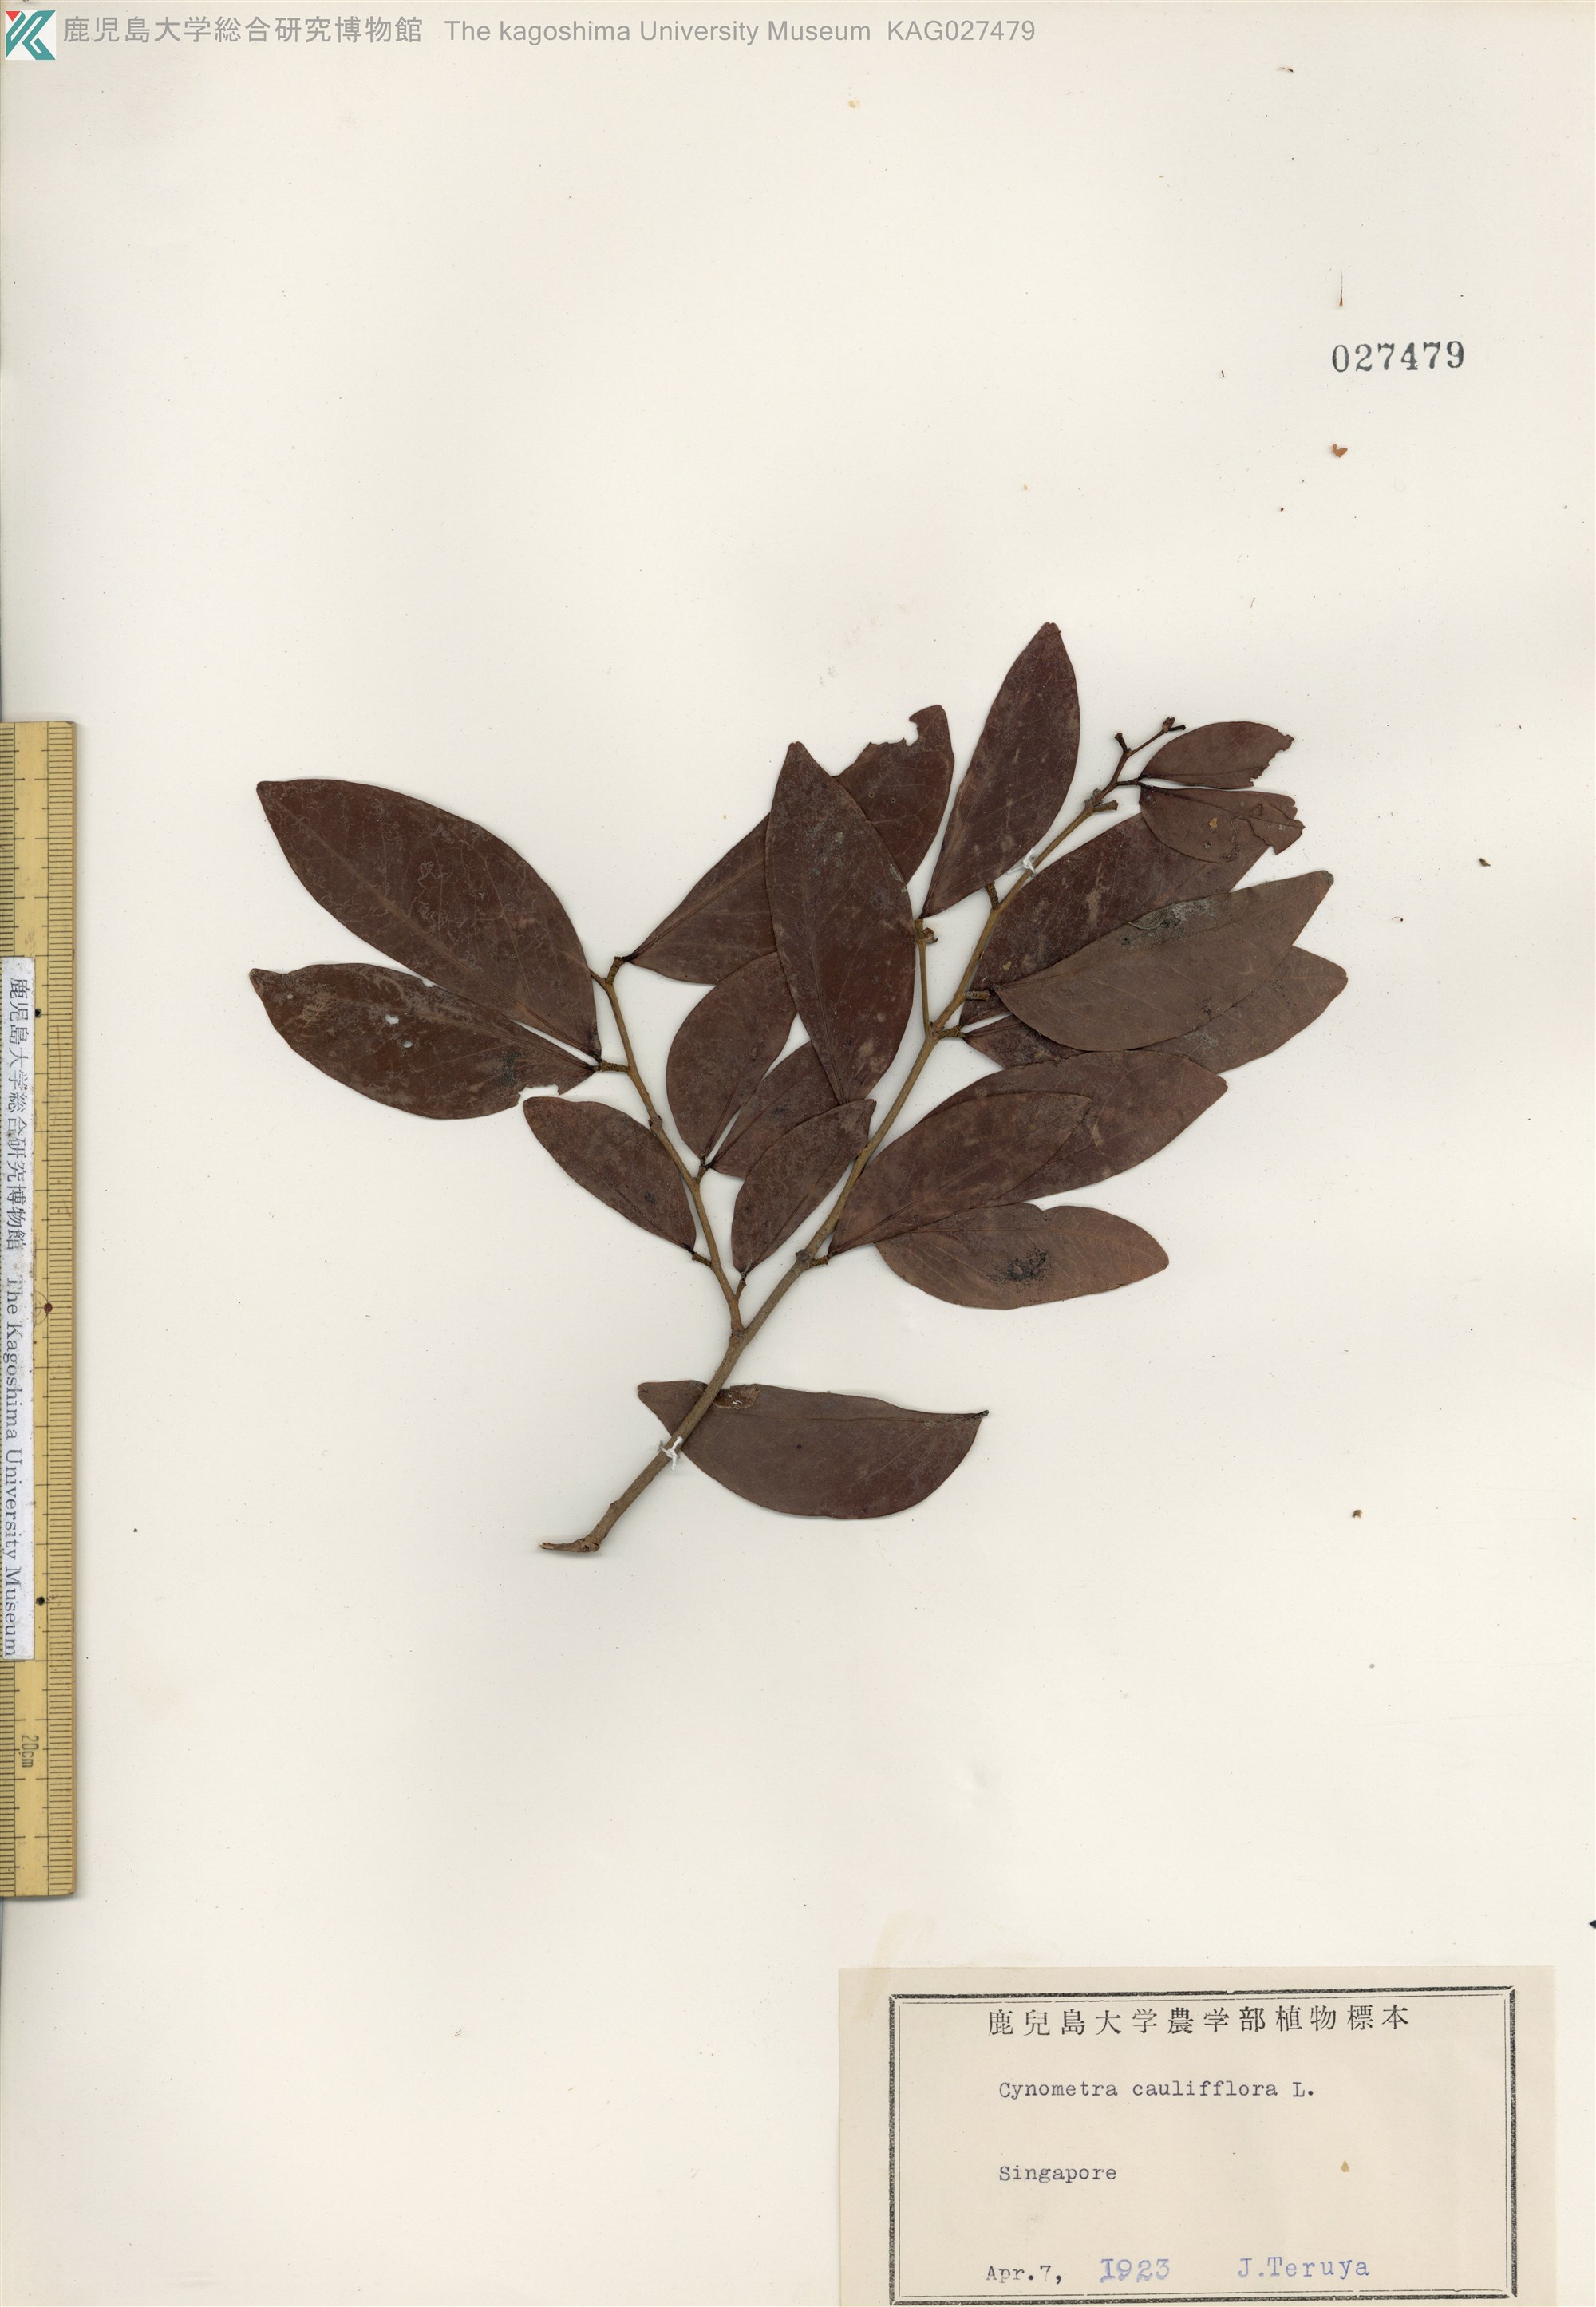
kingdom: Plantae
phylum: Tracheophyta
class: Magnoliopsida
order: Fabales
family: Fabaceae
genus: Cynometra
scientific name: Cynometra cauliflora
